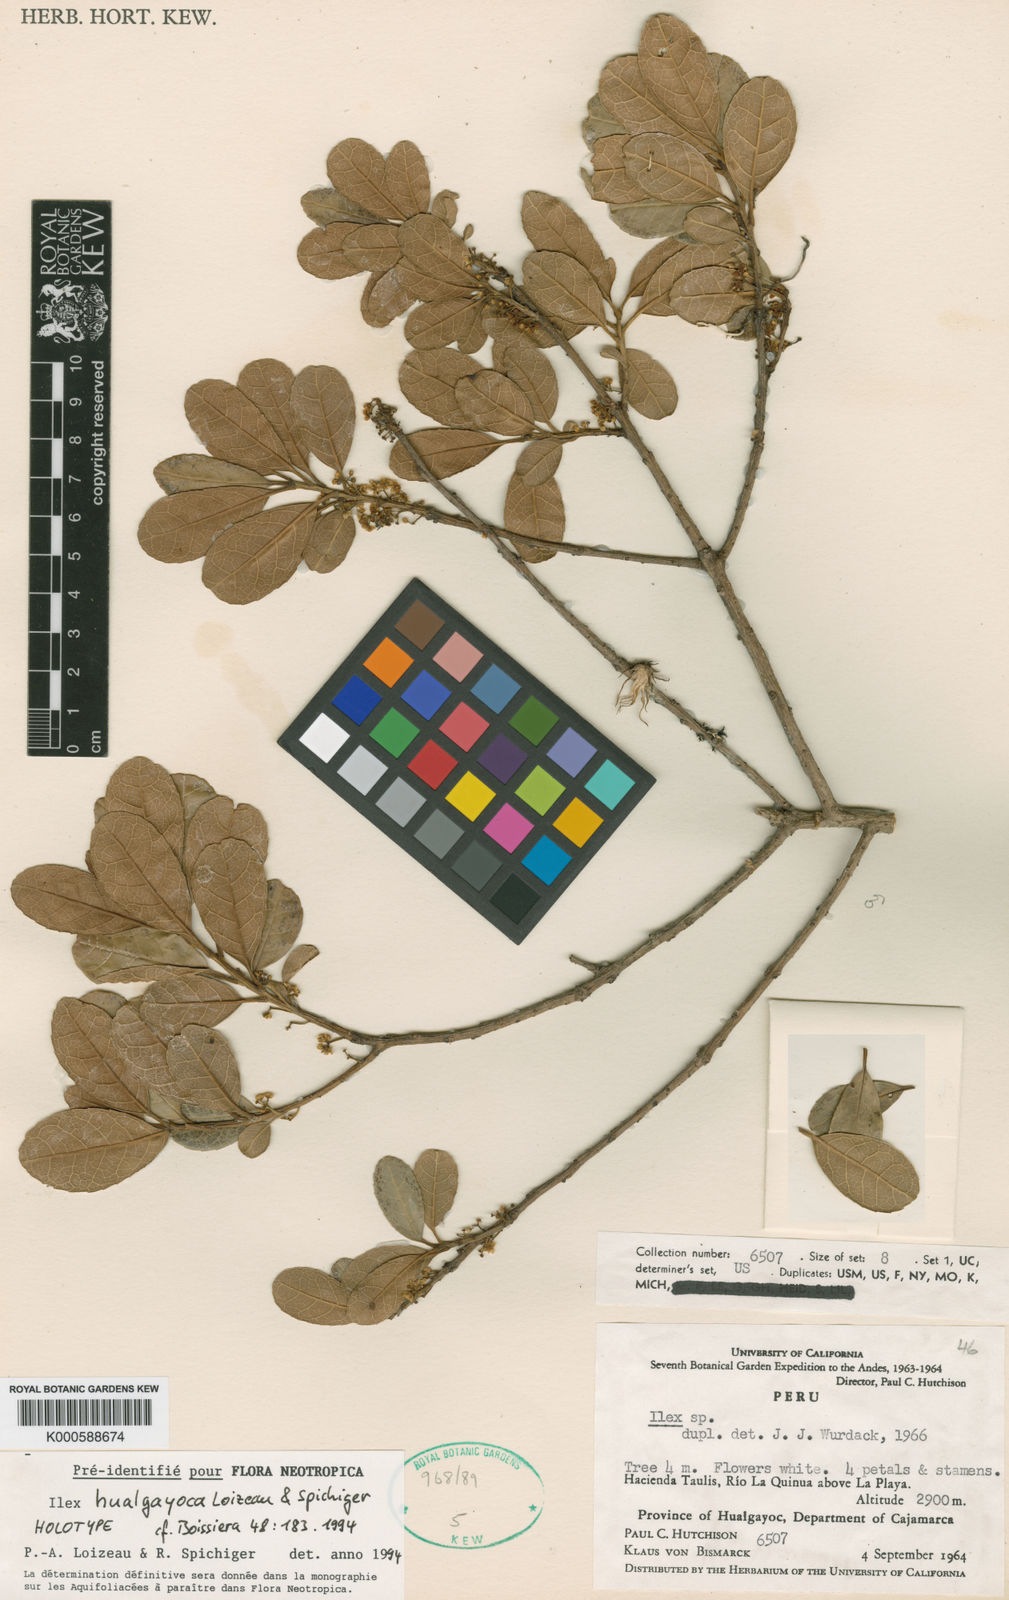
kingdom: Plantae
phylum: Tracheophyta
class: Magnoliopsida
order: Aquifoliales
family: Aquifoliaceae
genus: Ilex
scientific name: Ilex hualgayoca
